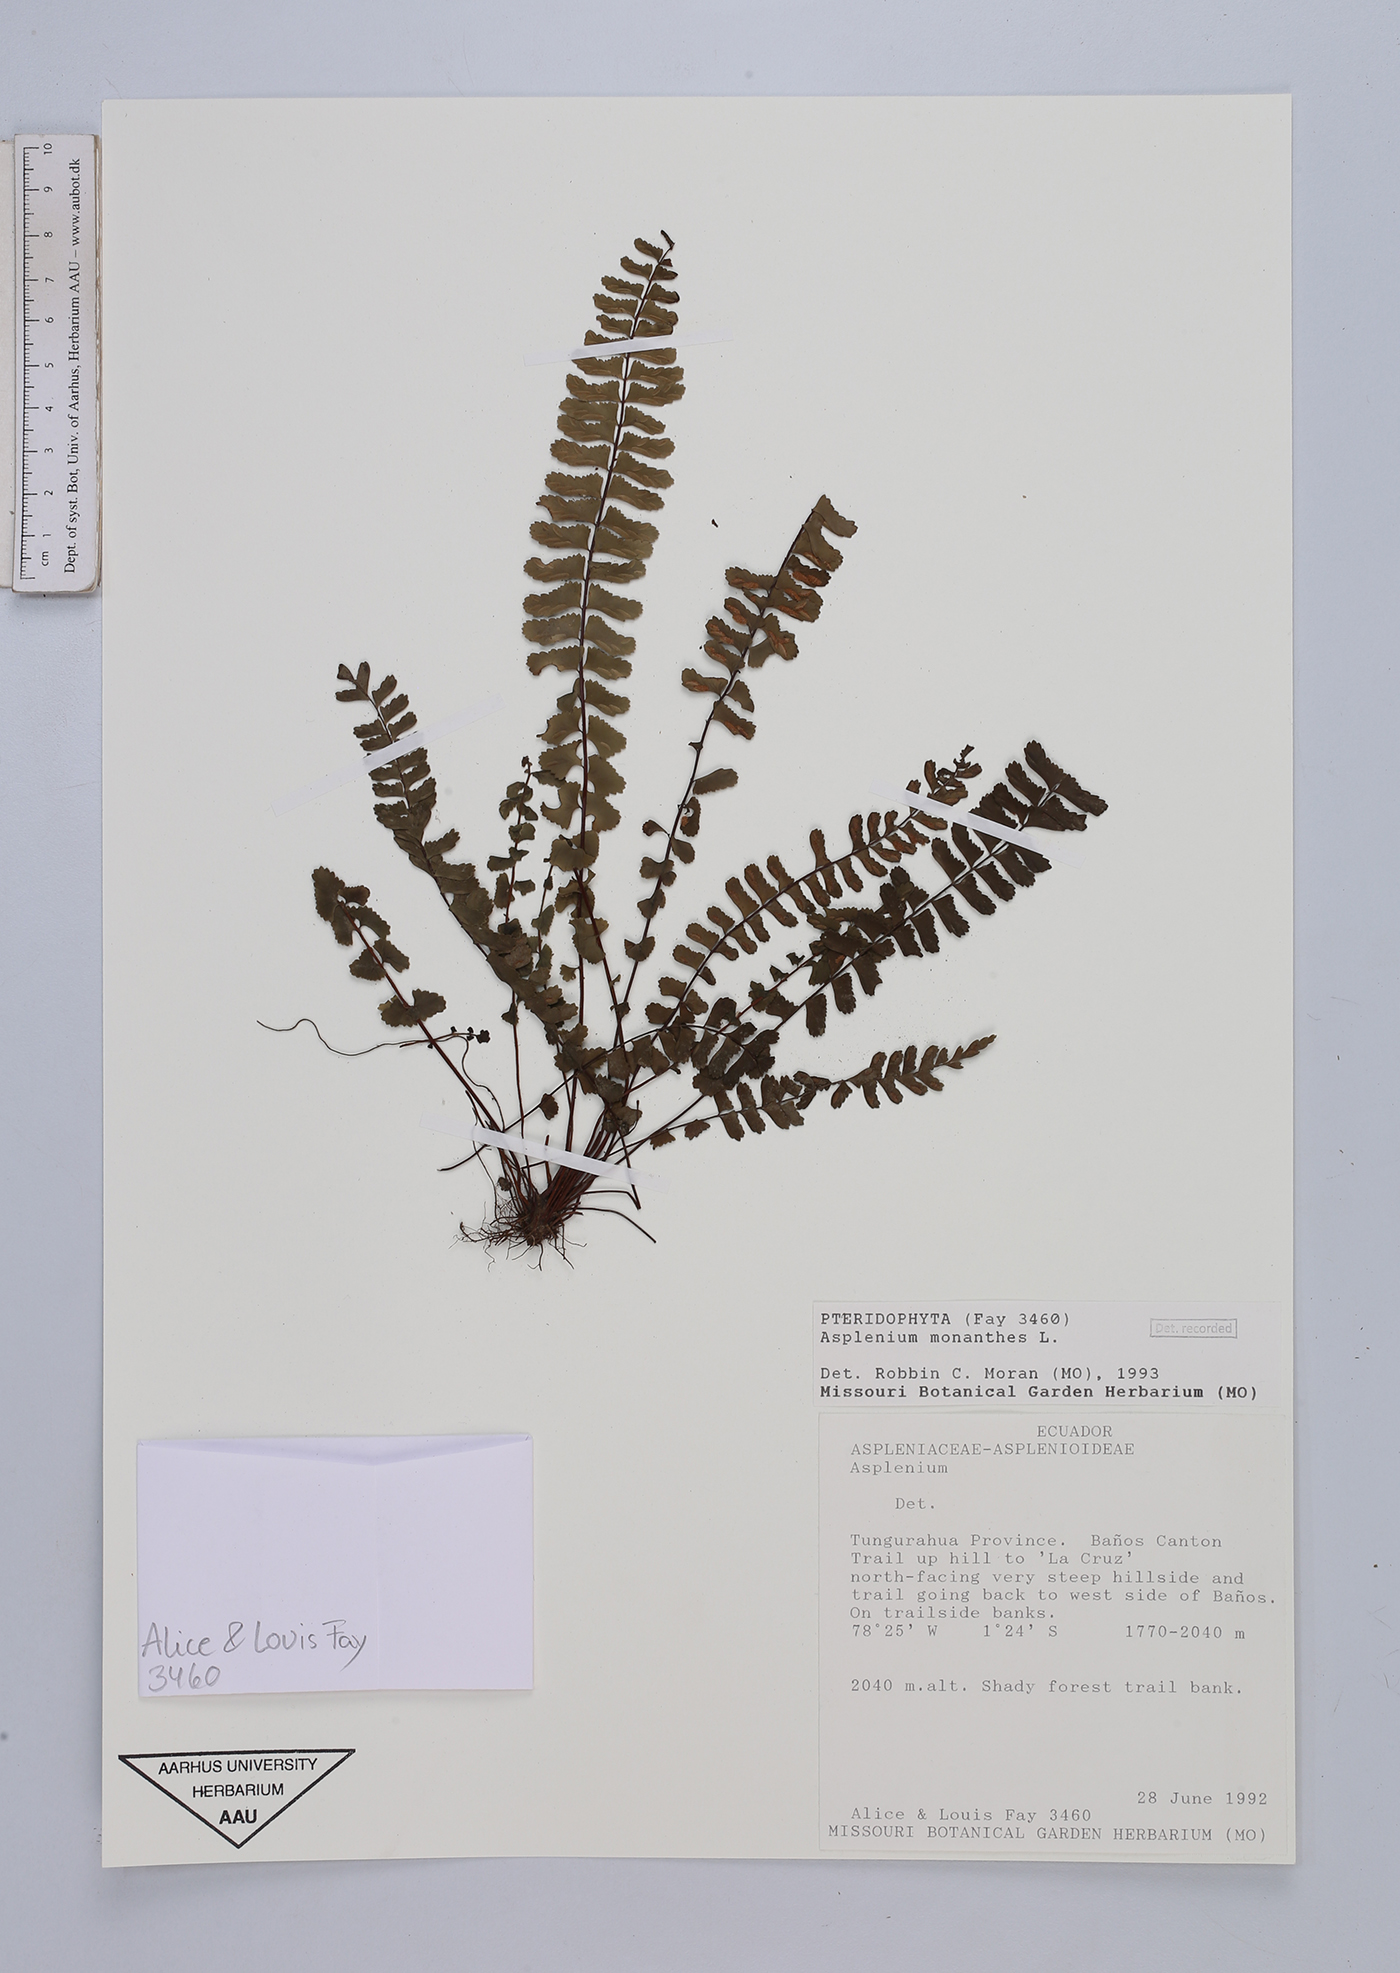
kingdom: Plantae
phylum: Tracheophyta
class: Polypodiopsida
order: Polypodiales
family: Aspleniaceae
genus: Asplenium
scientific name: Asplenium monanthes
